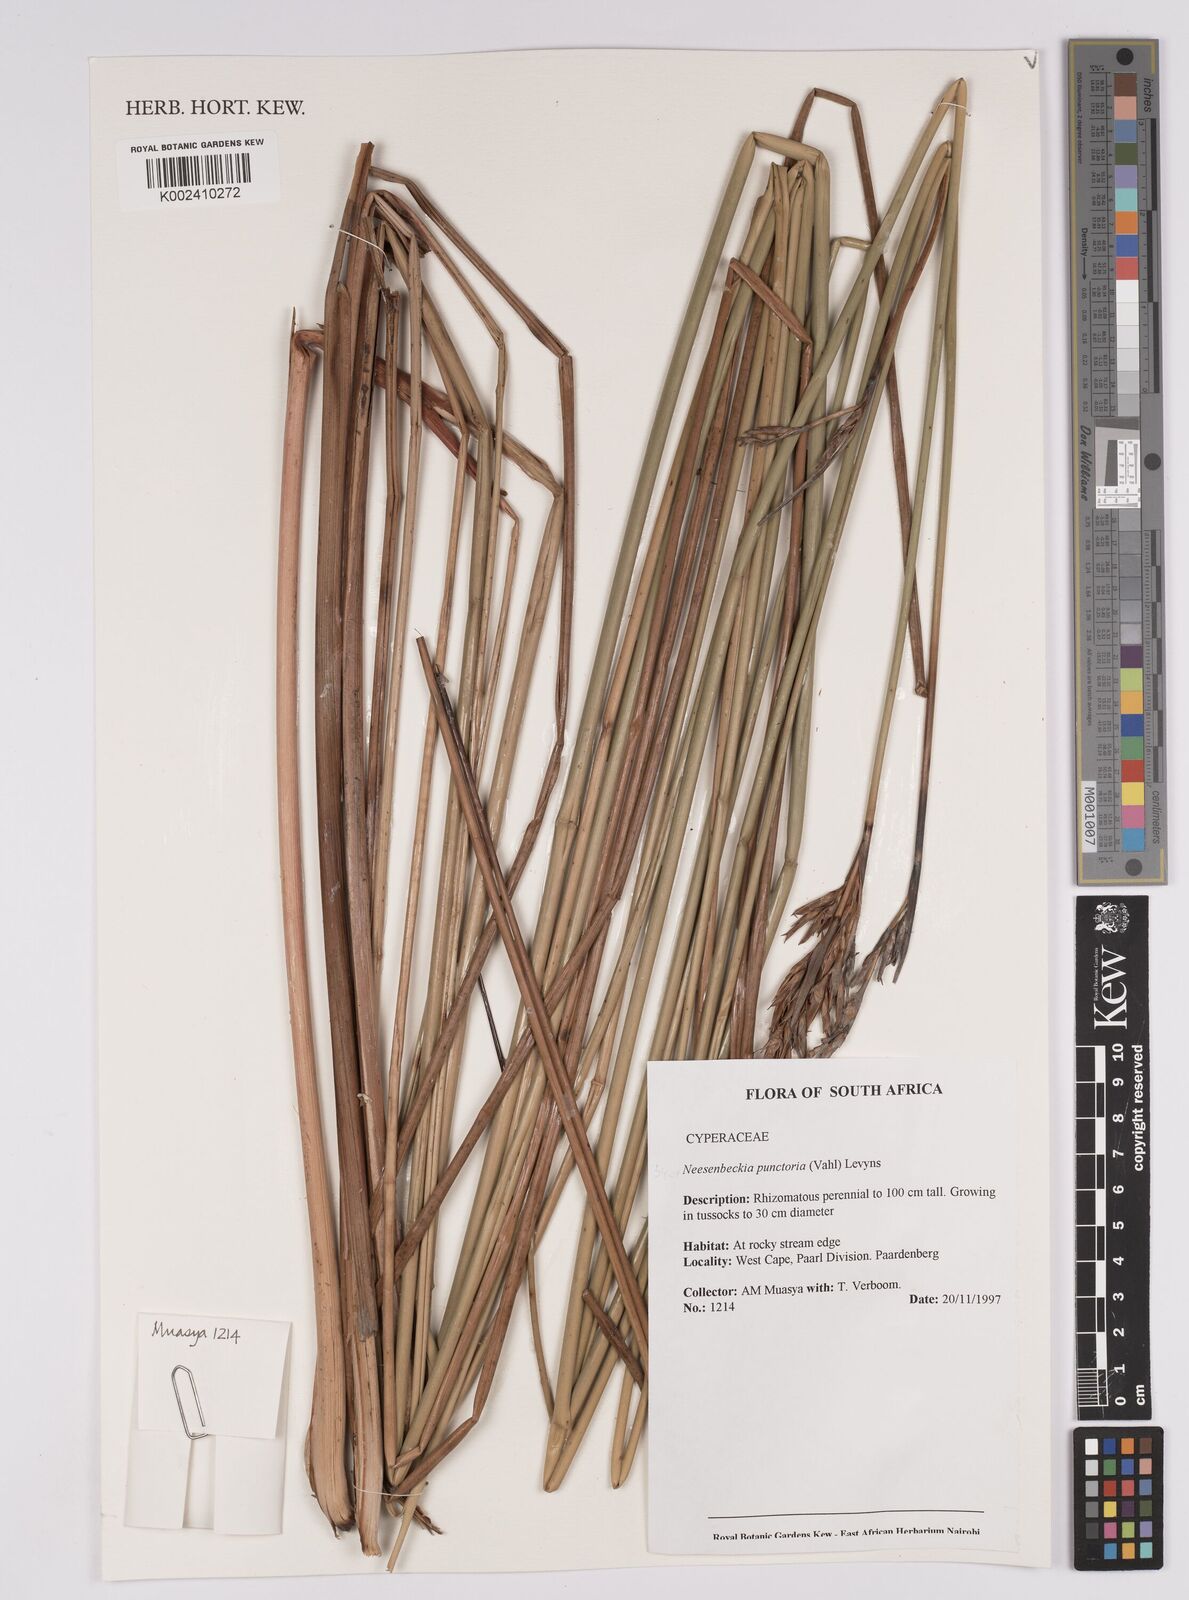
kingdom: Plantae
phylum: Tracheophyta
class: Liliopsida
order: Poales
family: Cyperaceae
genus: Neesenbeckia
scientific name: Neesenbeckia punctoria
